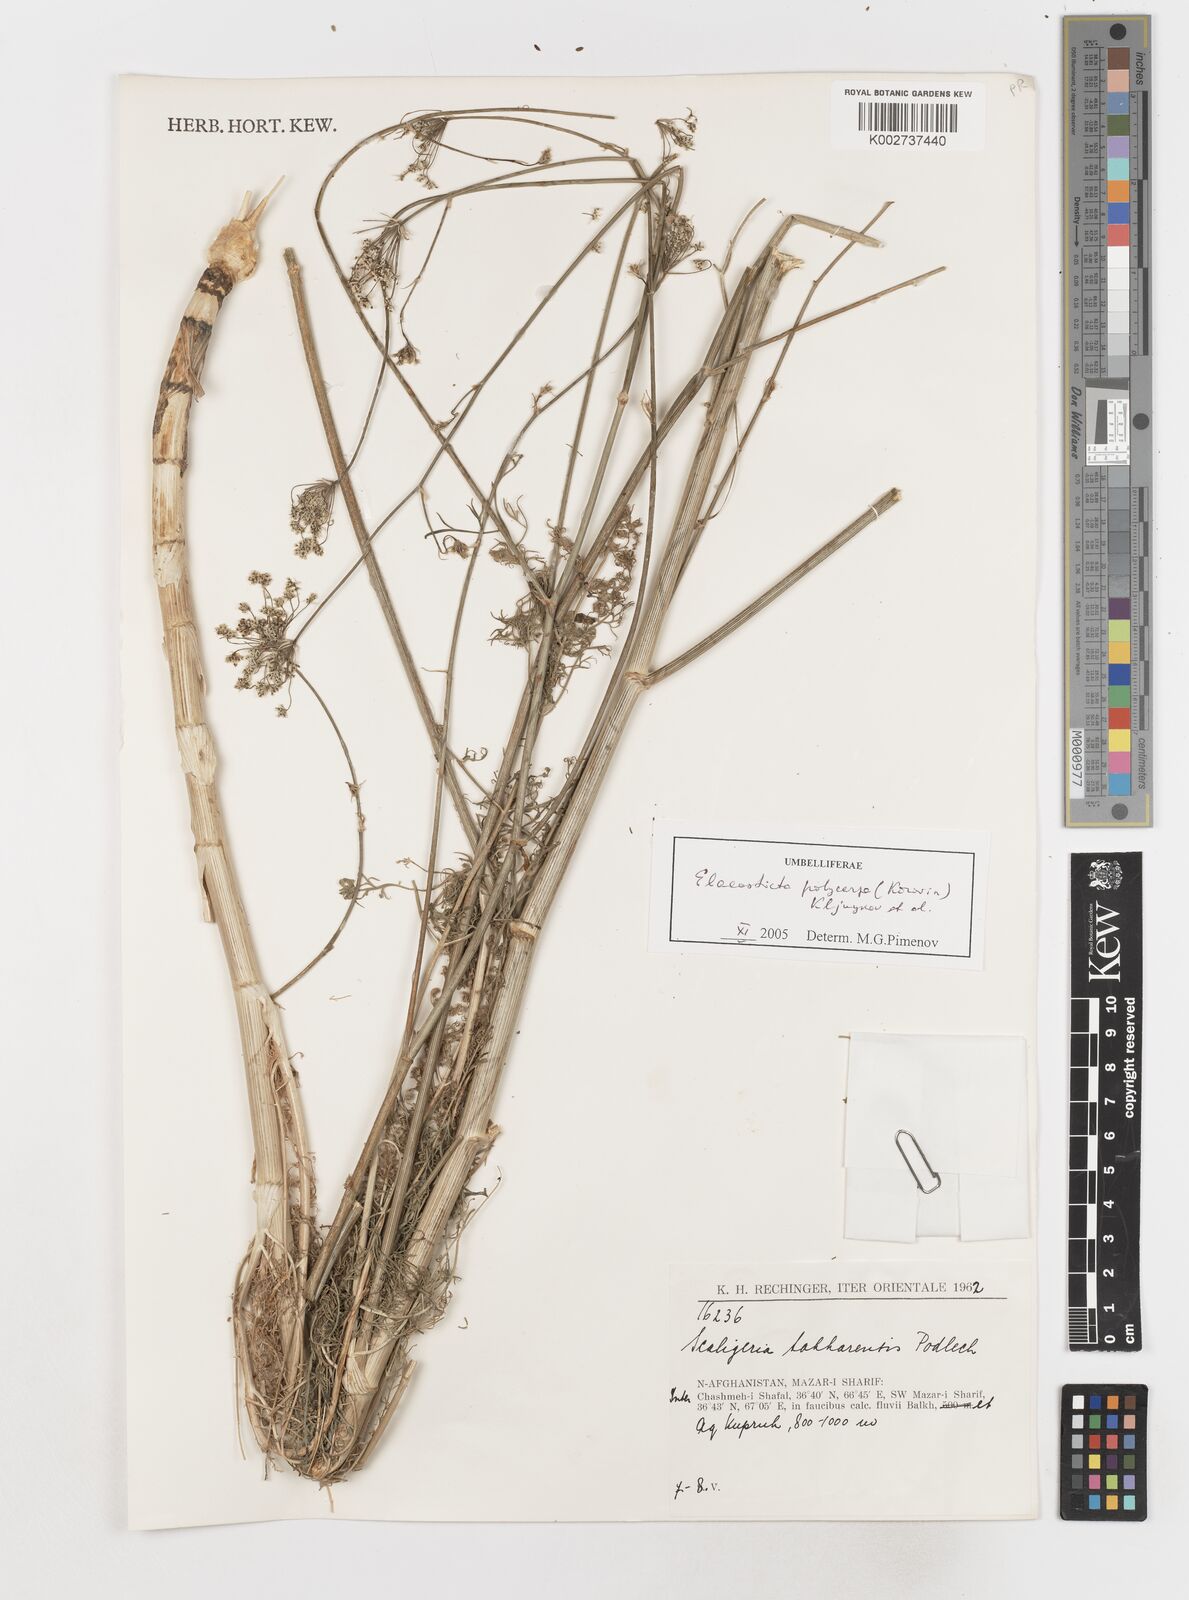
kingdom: Plantae
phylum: Tracheophyta
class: Magnoliopsida
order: Apiales
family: Apiaceae
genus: Scaligeria
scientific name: Scaligeria polycarpa
